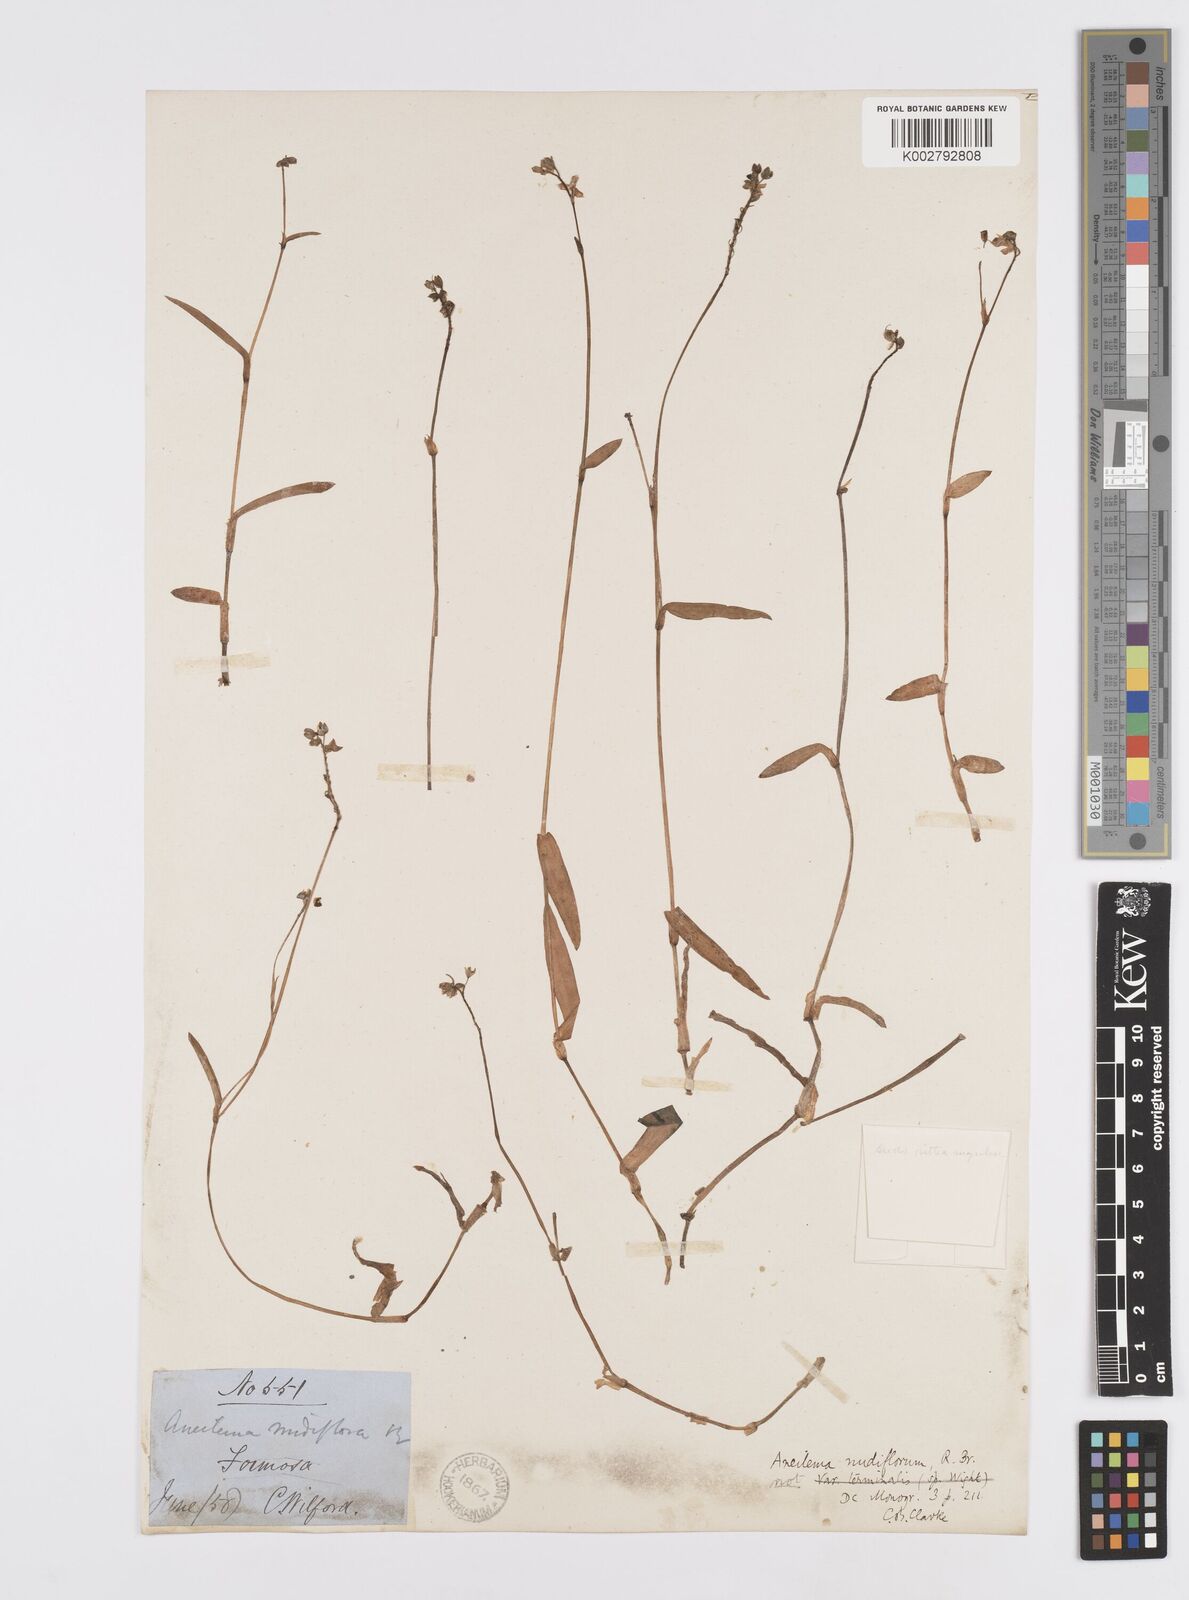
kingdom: Plantae
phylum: Tracheophyta
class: Liliopsida
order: Commelinales
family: Commelinaceae
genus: Murdannia
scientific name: Murdannia
